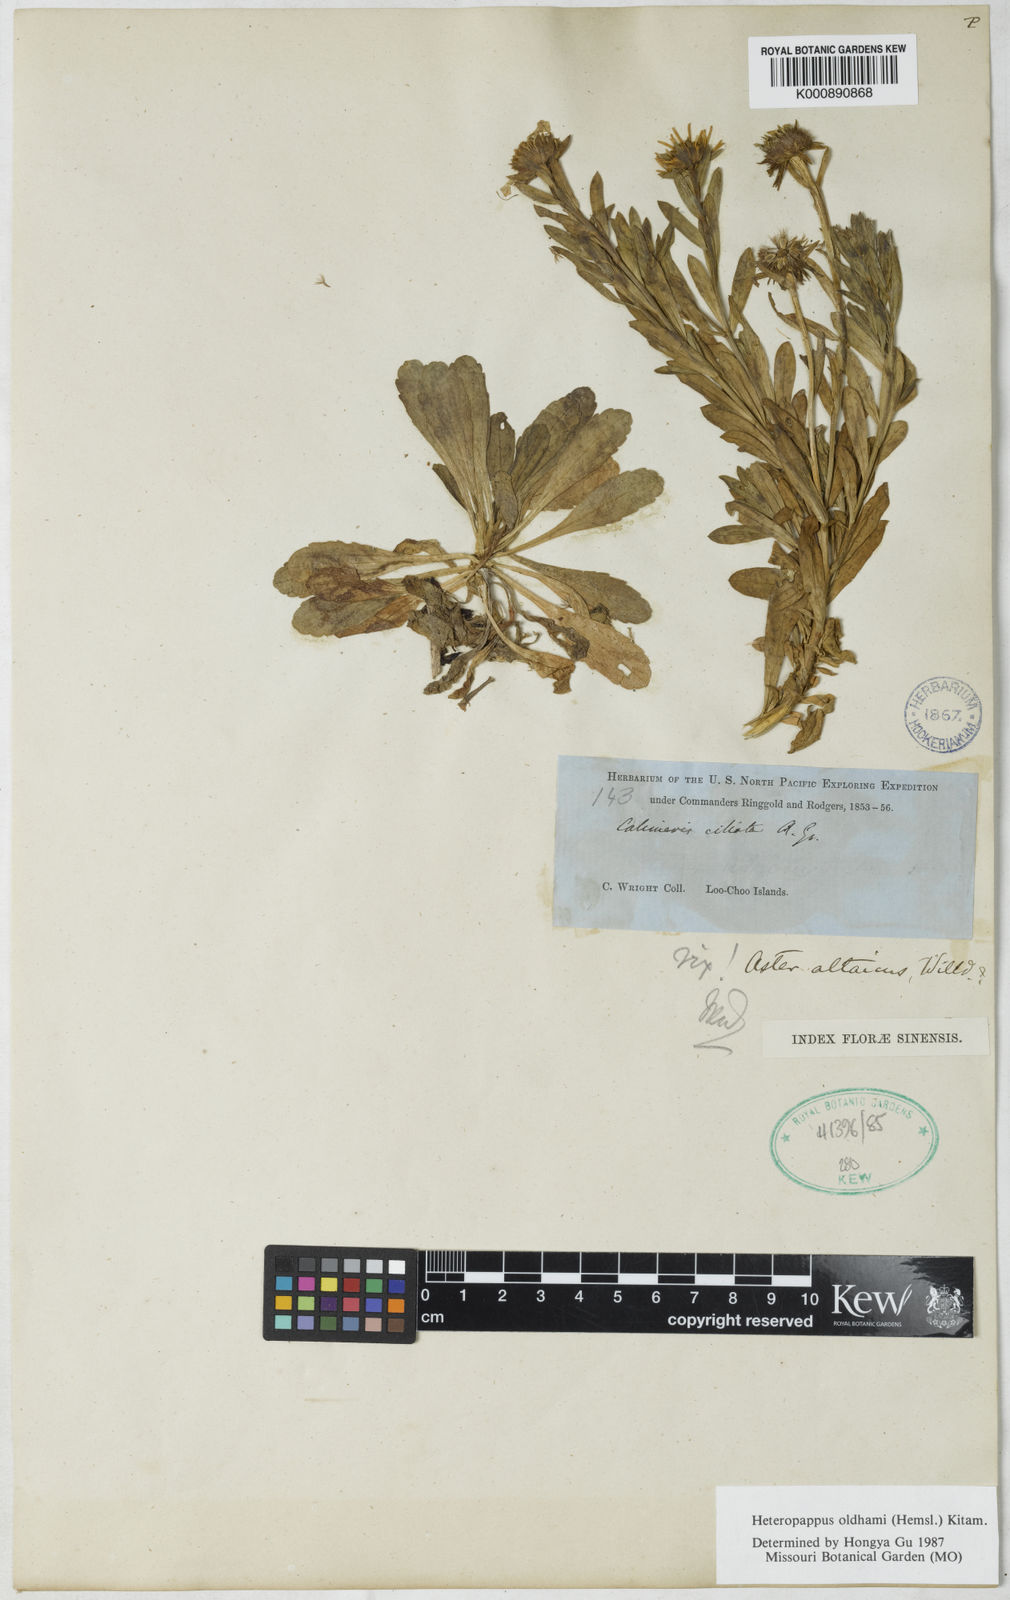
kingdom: Plantae
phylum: Tracheophyta
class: Magnoliopsida
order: Asterales
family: Asteraceae
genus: Heteropappus
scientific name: Heteropappus oldhamii
